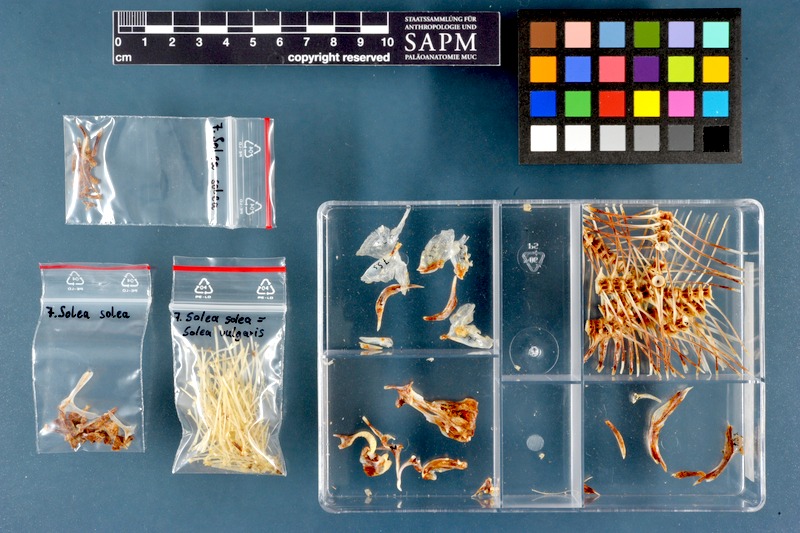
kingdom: Animalia
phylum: Chordata
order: Pleuronectiformes
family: Soleidae
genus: Solea
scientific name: Solea solea
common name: Sole
